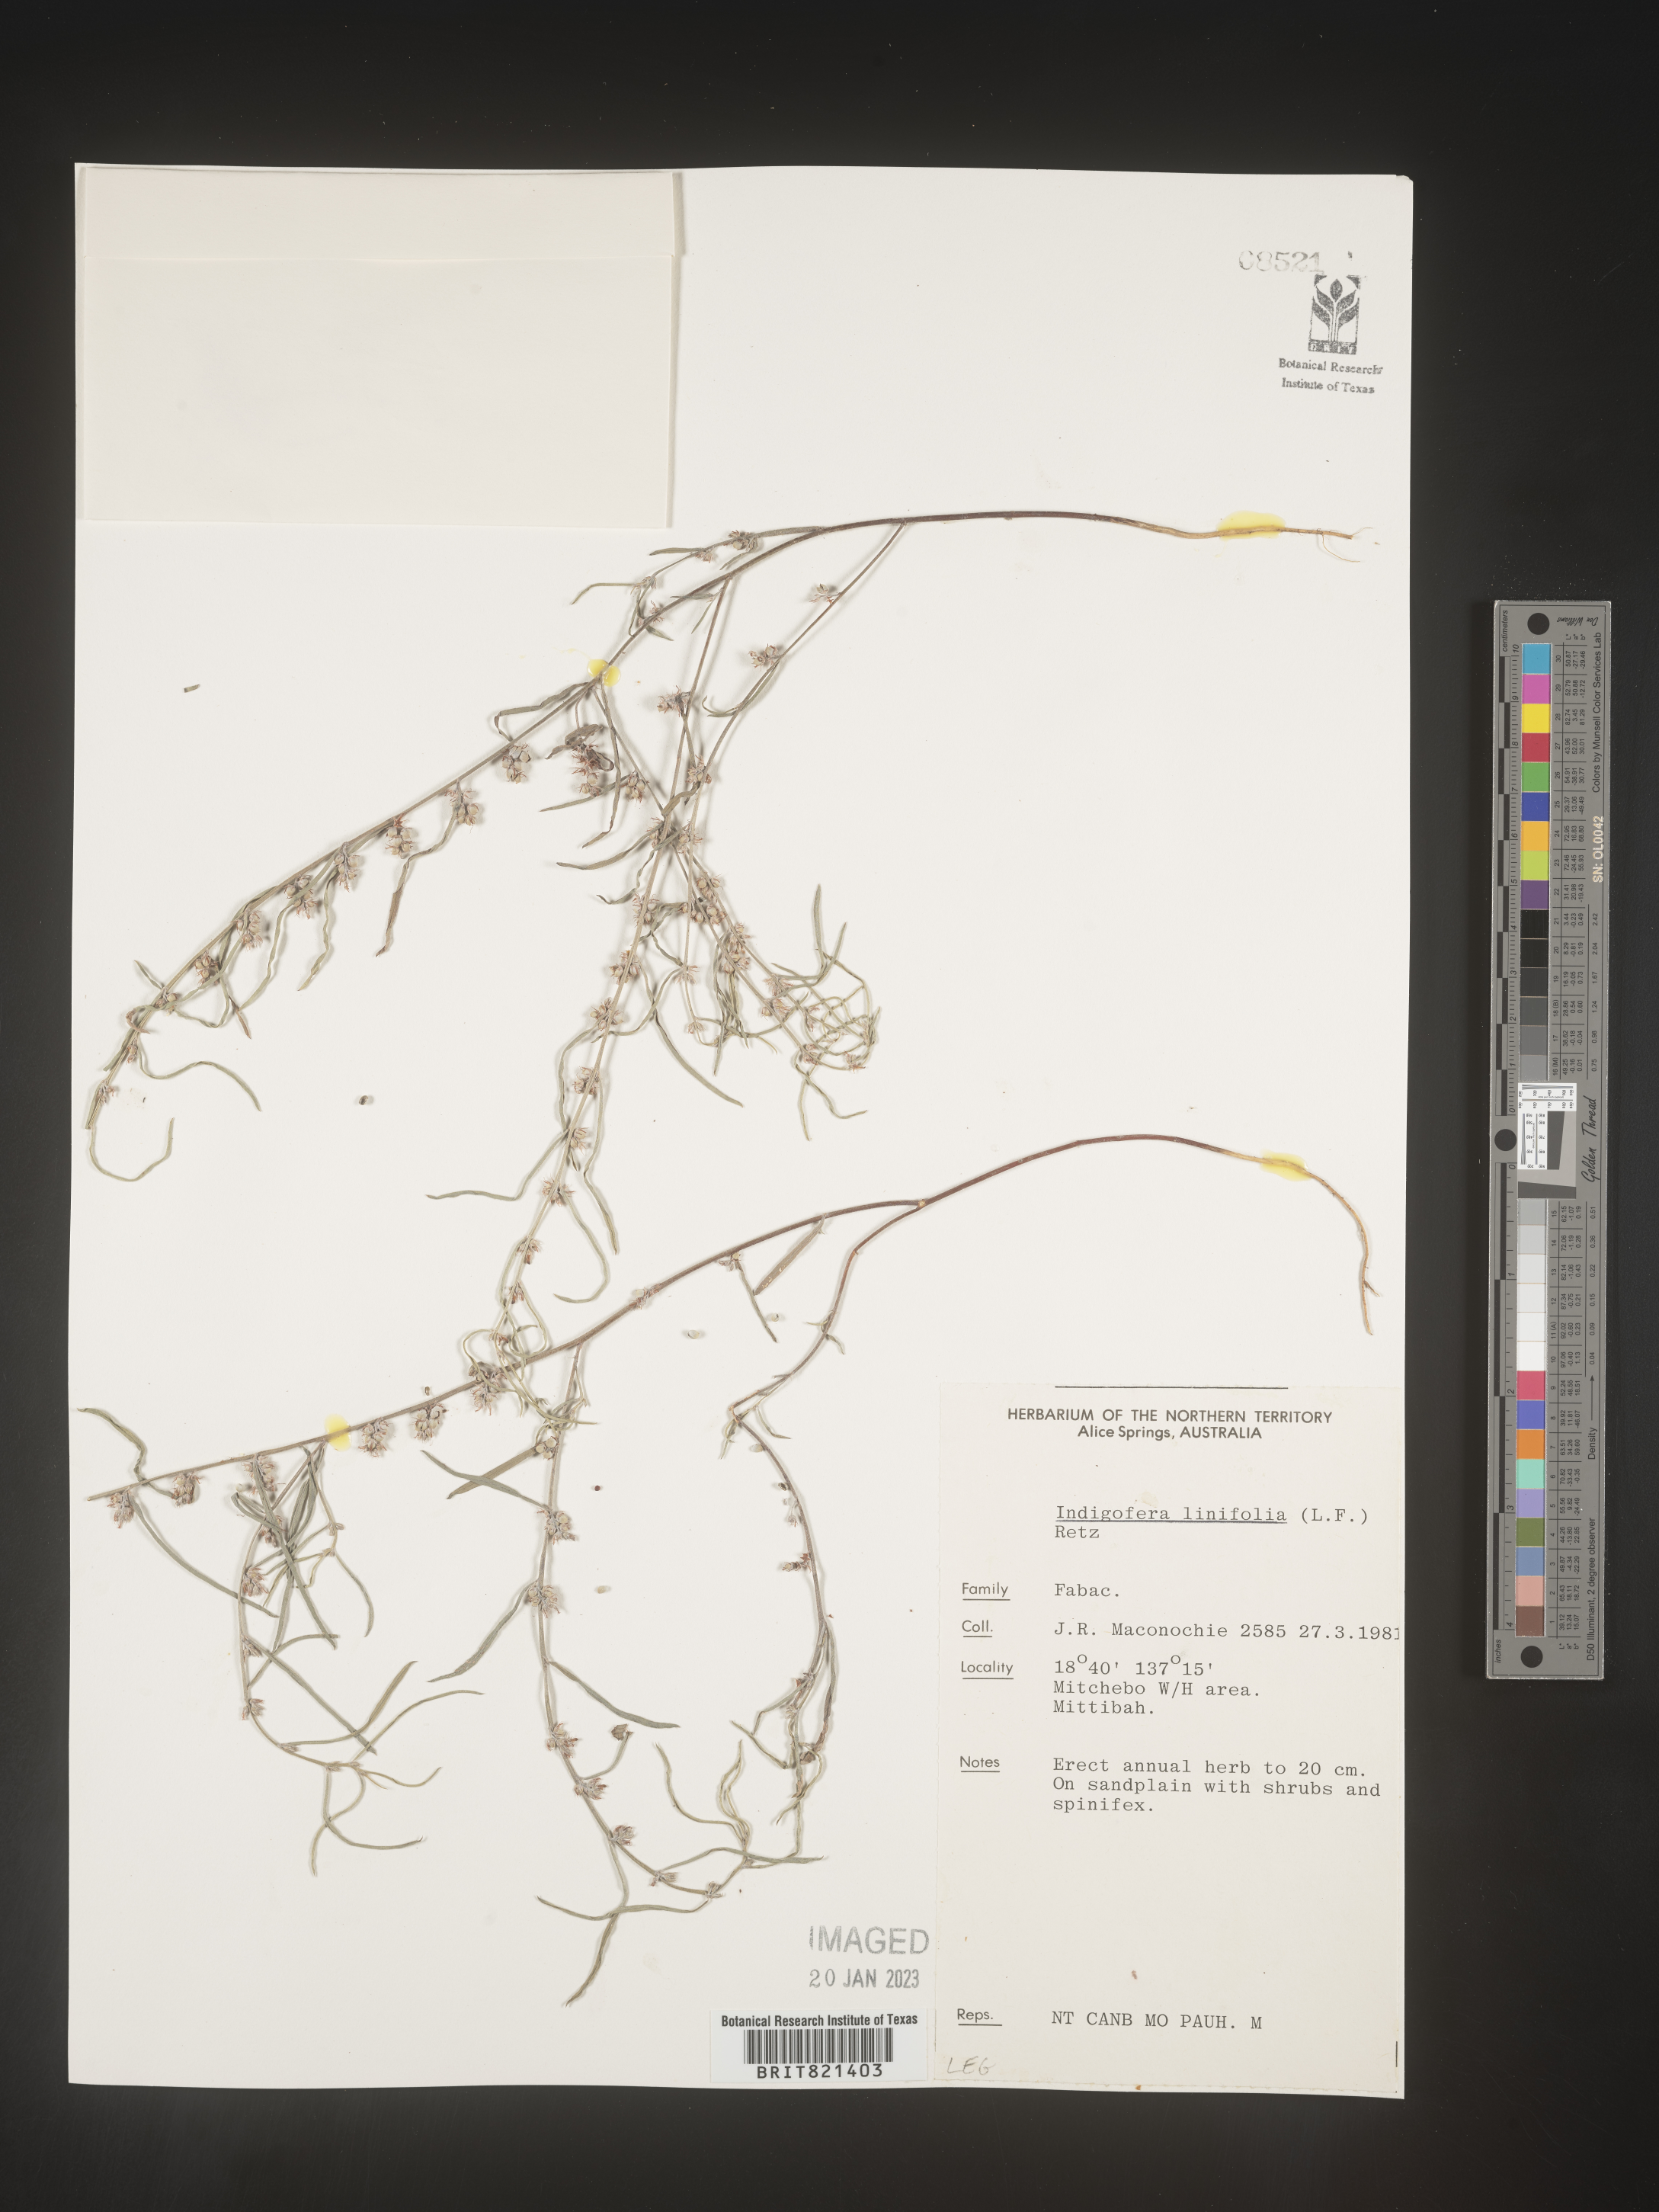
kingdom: Plantae
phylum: Tracheophyta
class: Magnoliopsida
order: Fabales
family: Fabaceae
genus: Indigofera
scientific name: Indigofera
